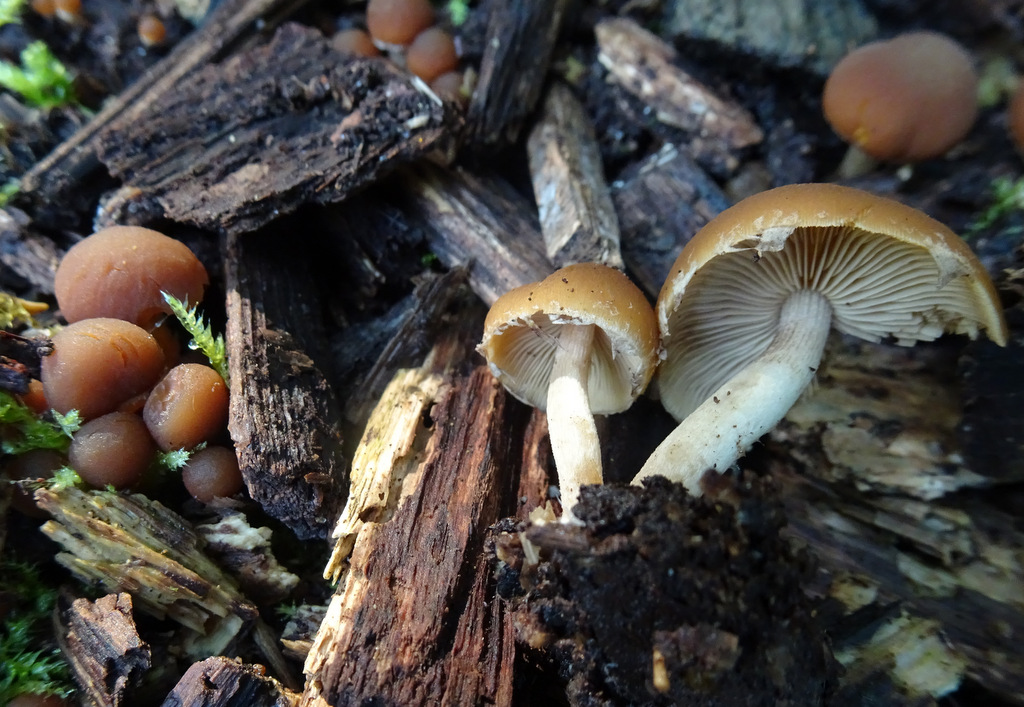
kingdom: Fungi
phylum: Basidiomycota
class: Agaricomycetes
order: Agaricales
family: Psathyrellaceae
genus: Psathyrella
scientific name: Psathyrella
